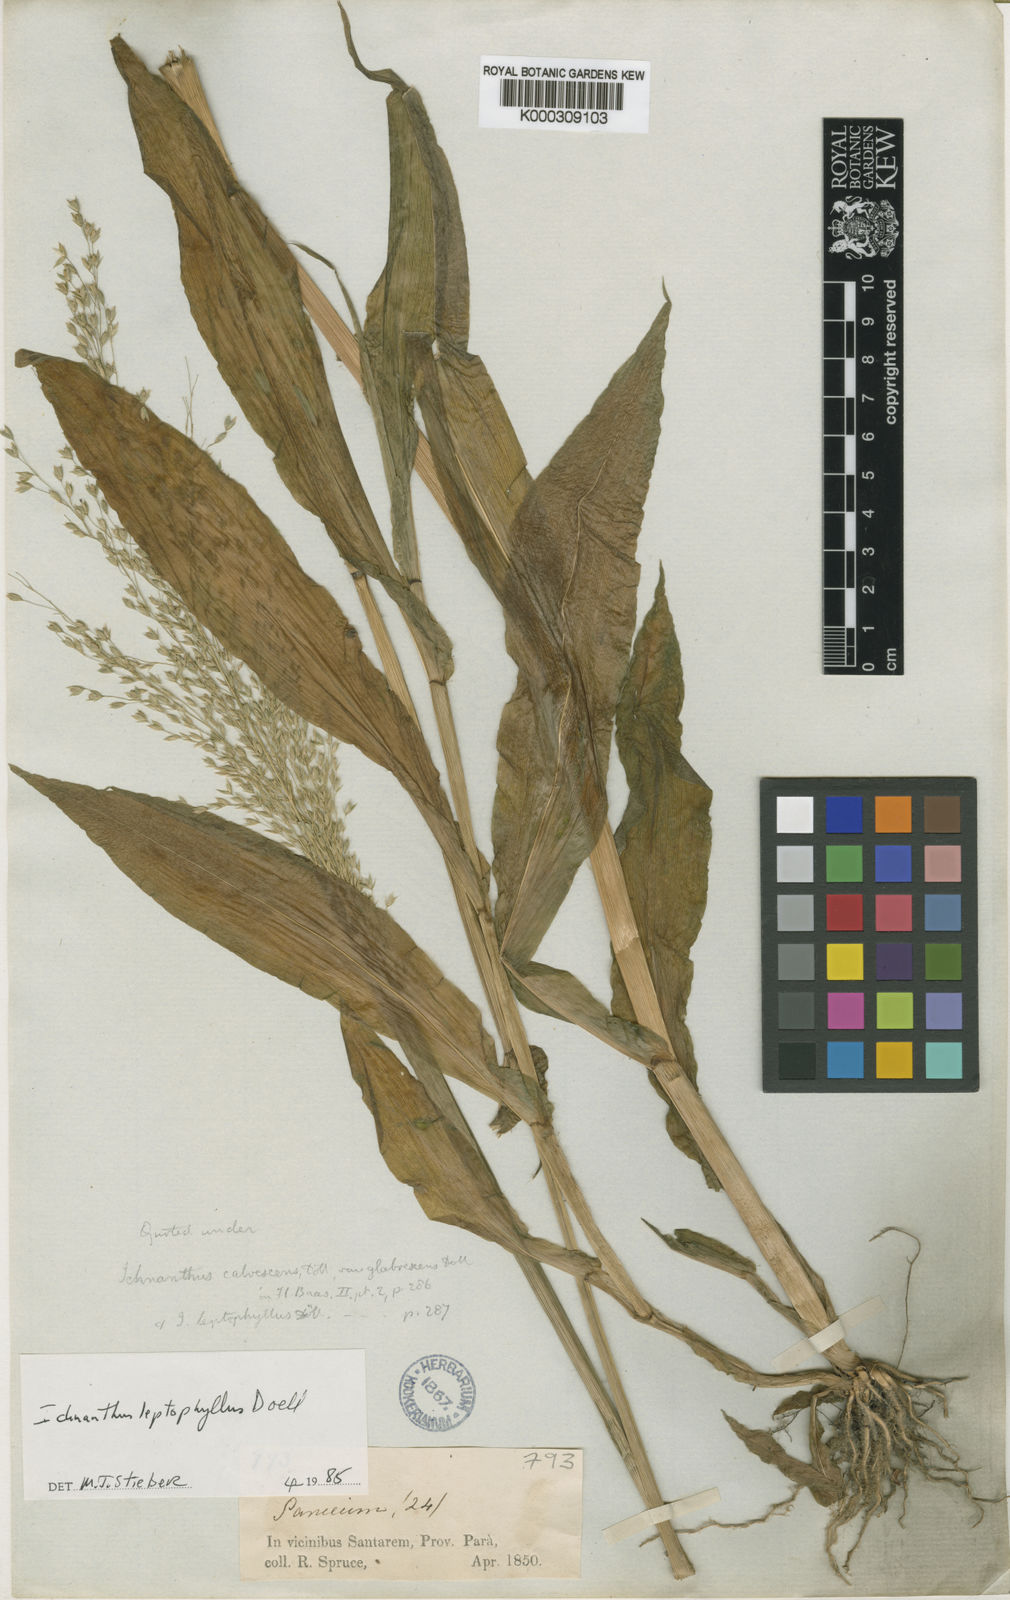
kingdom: Plantae
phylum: Tracheophyta
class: Liliopsida
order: Poales
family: Poaceae
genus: Ichnanthus
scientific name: Ichnanthus
